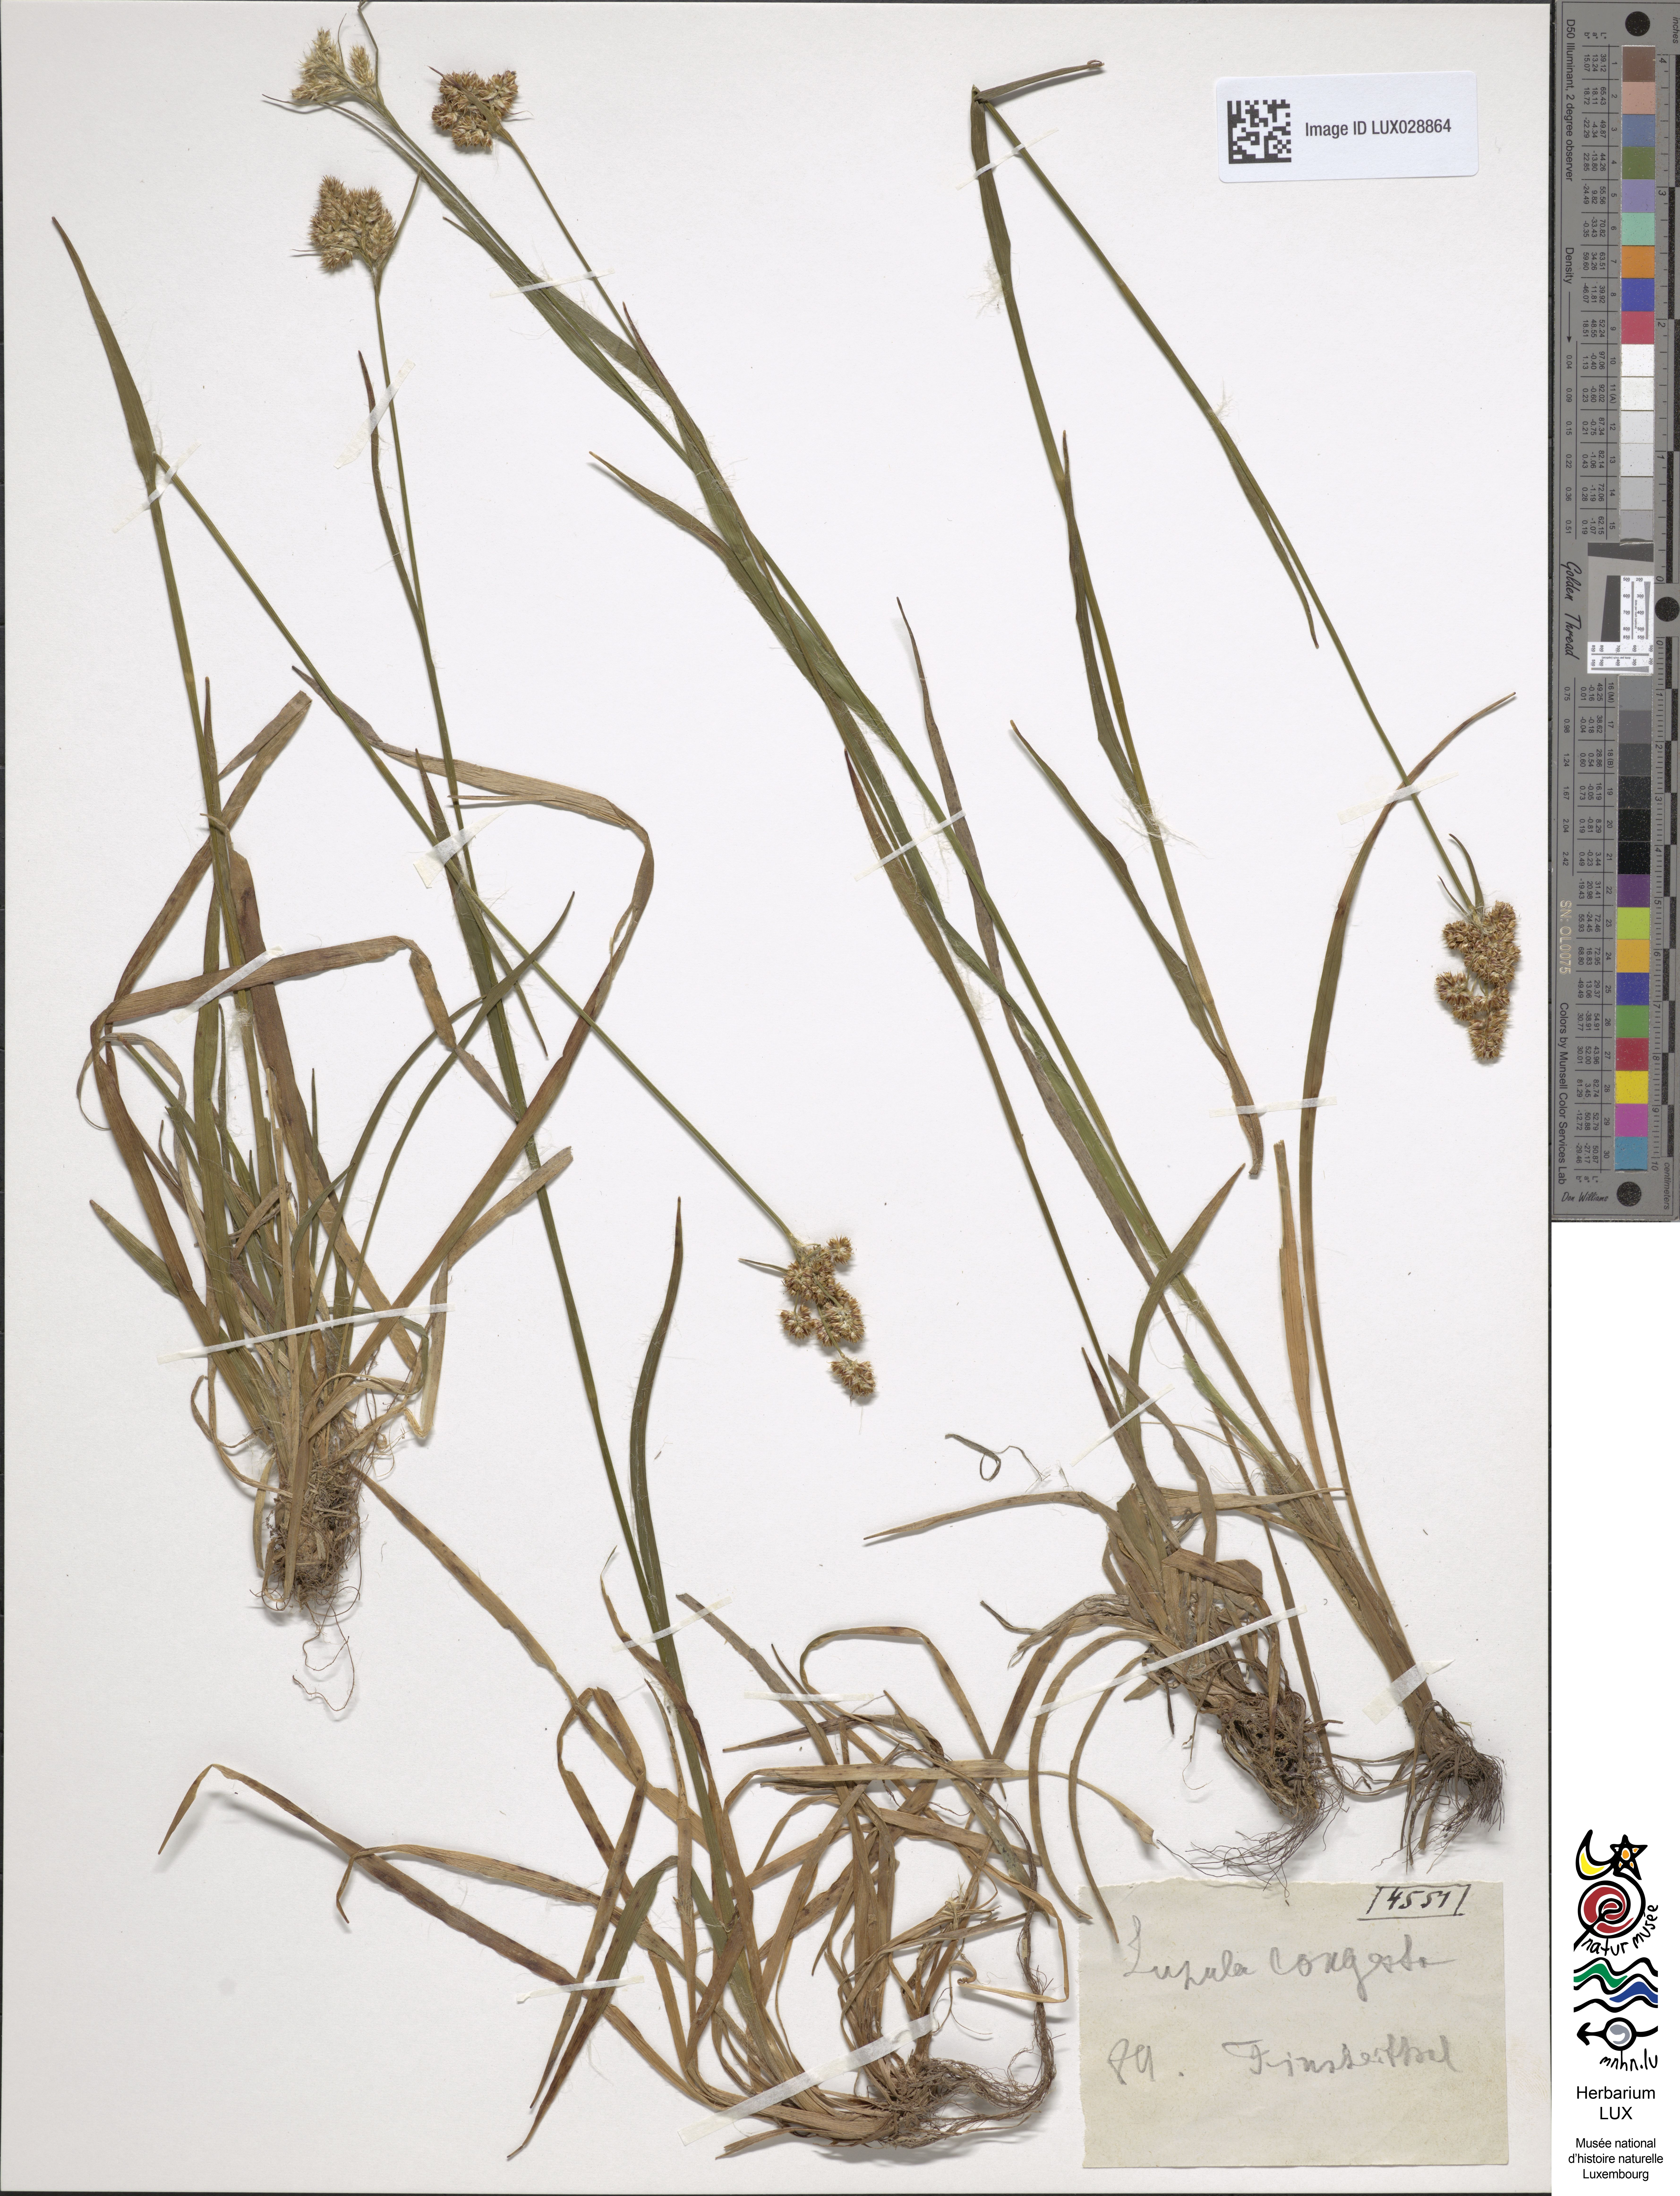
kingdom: Plantae
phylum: Tracheophyta
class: Liliopsida
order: Poales
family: Juncaceae
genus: Luzula
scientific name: Luzula multiflora
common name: Heath wood-rush
